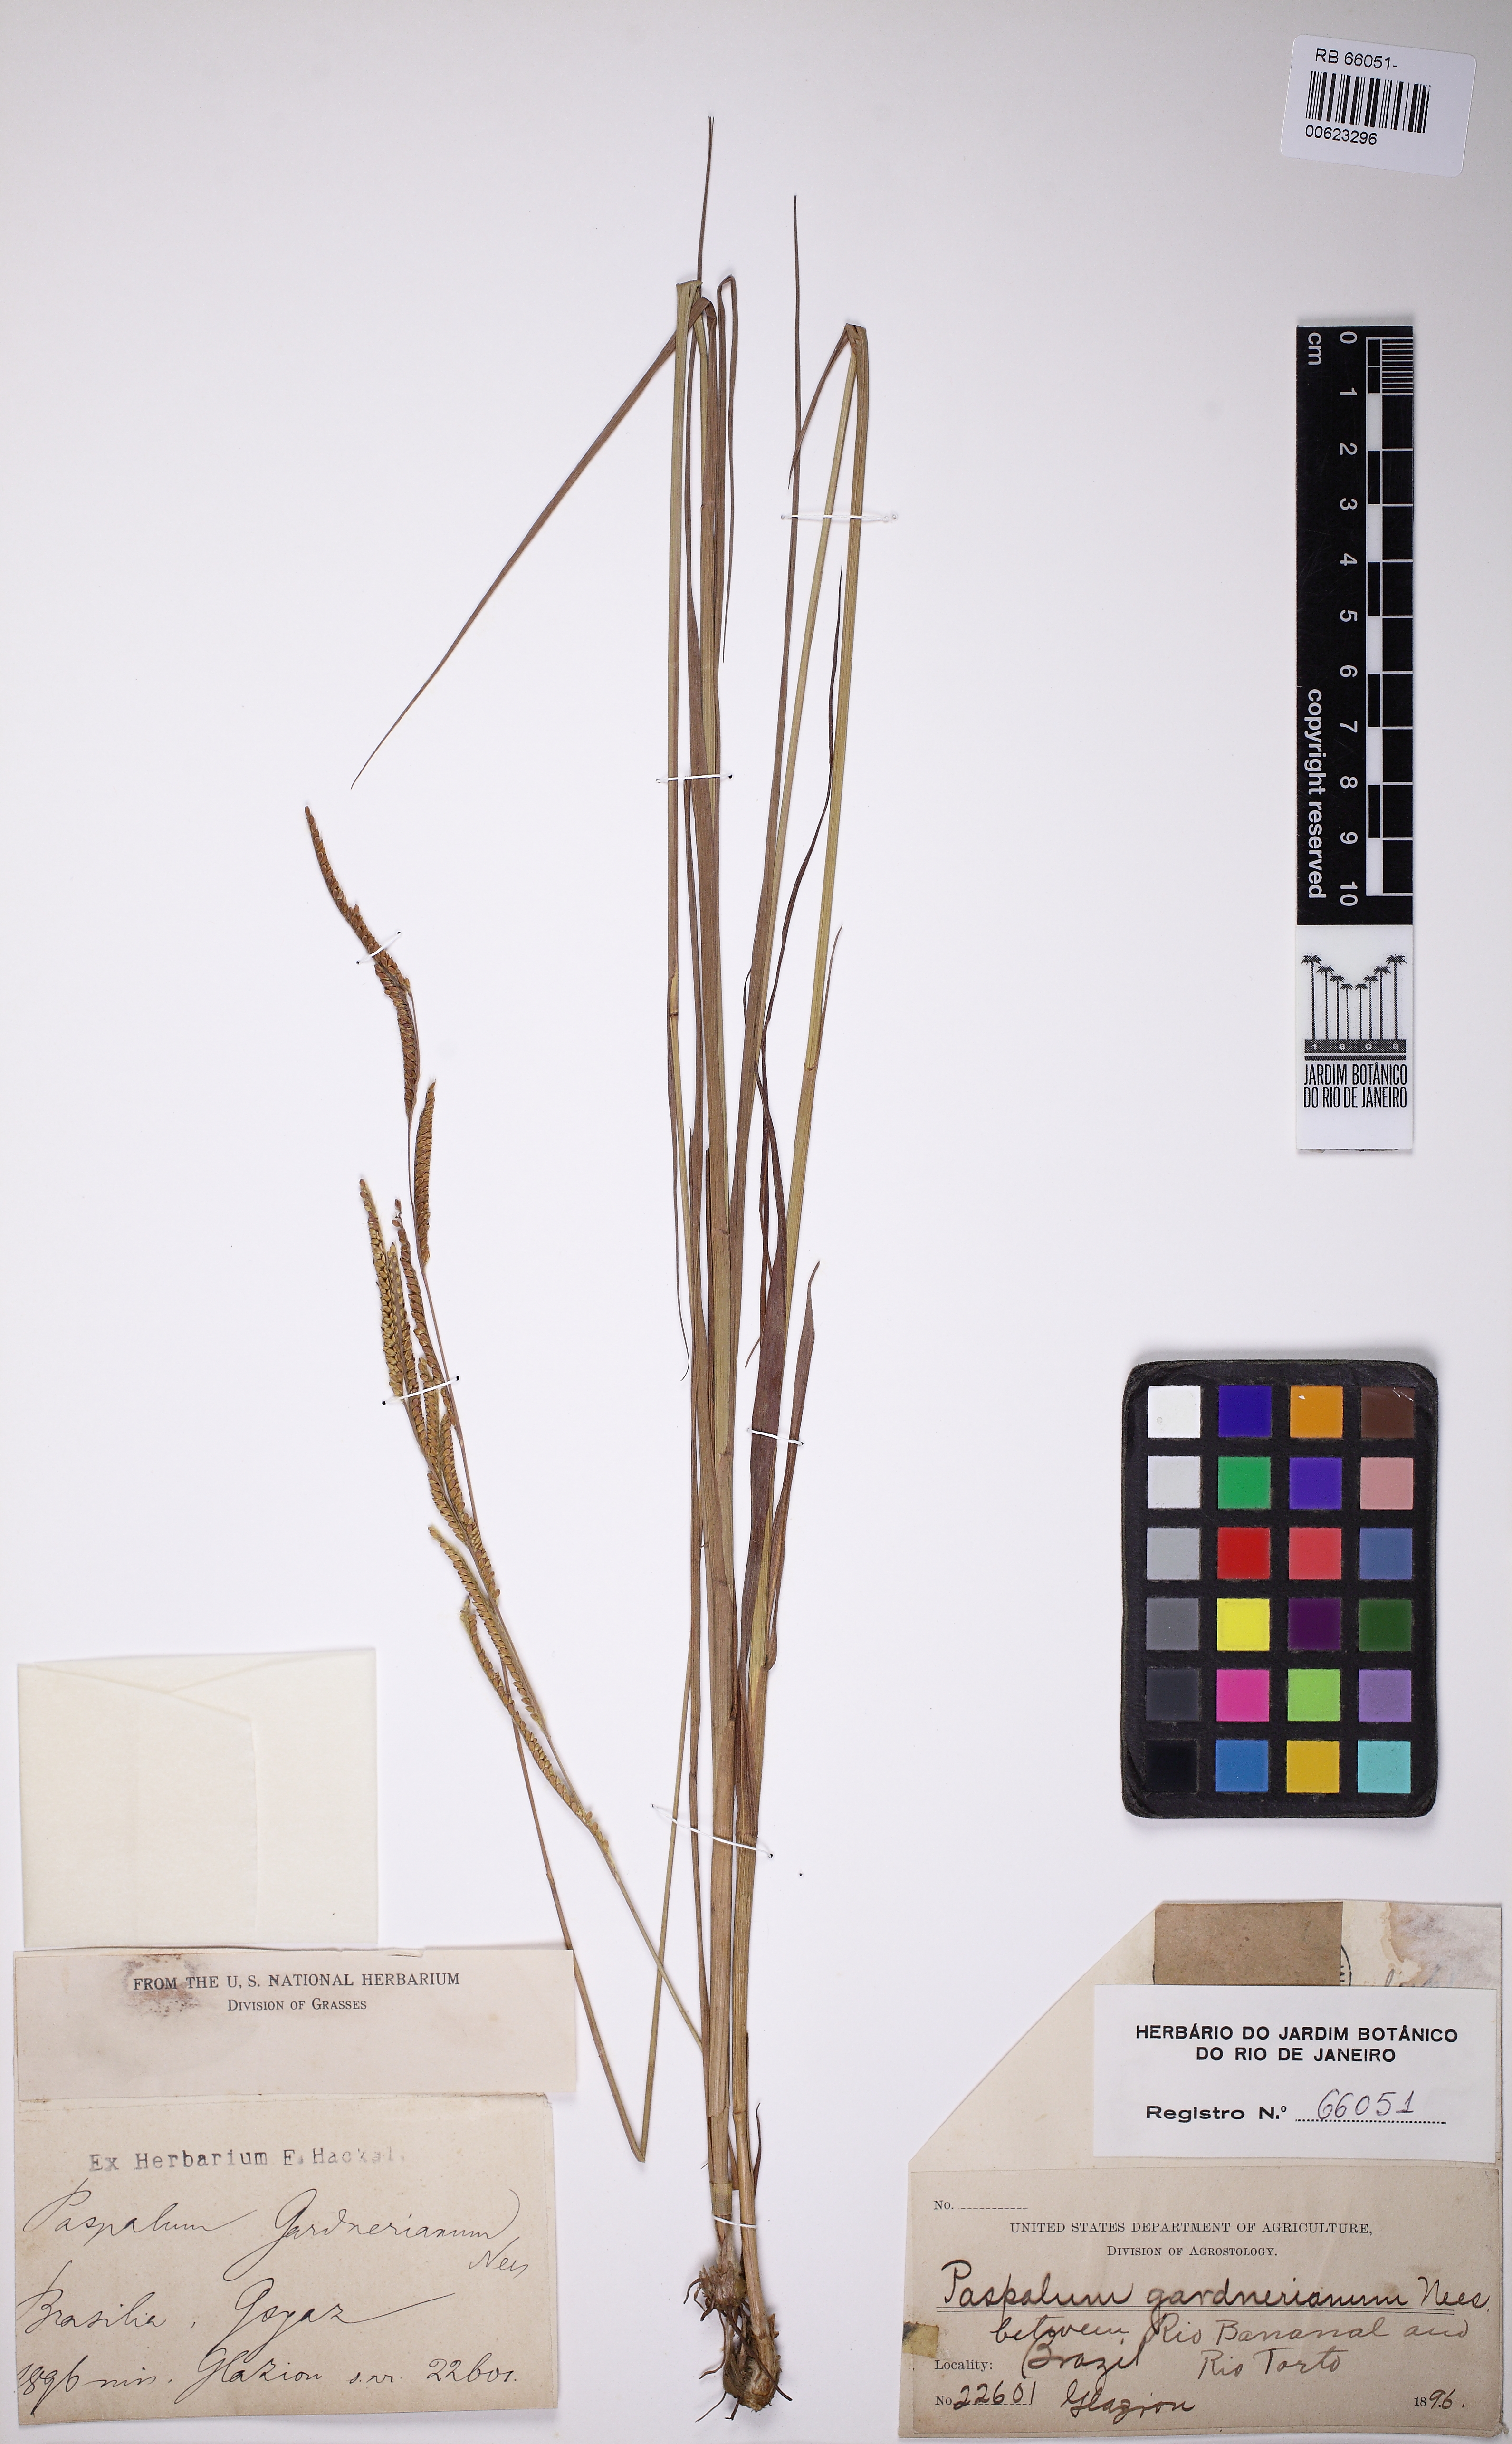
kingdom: Plantae
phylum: Tracheophyta
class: Liliopsida
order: Poales
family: Poaceae
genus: Paspalum
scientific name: Paspalum gardnerianum
